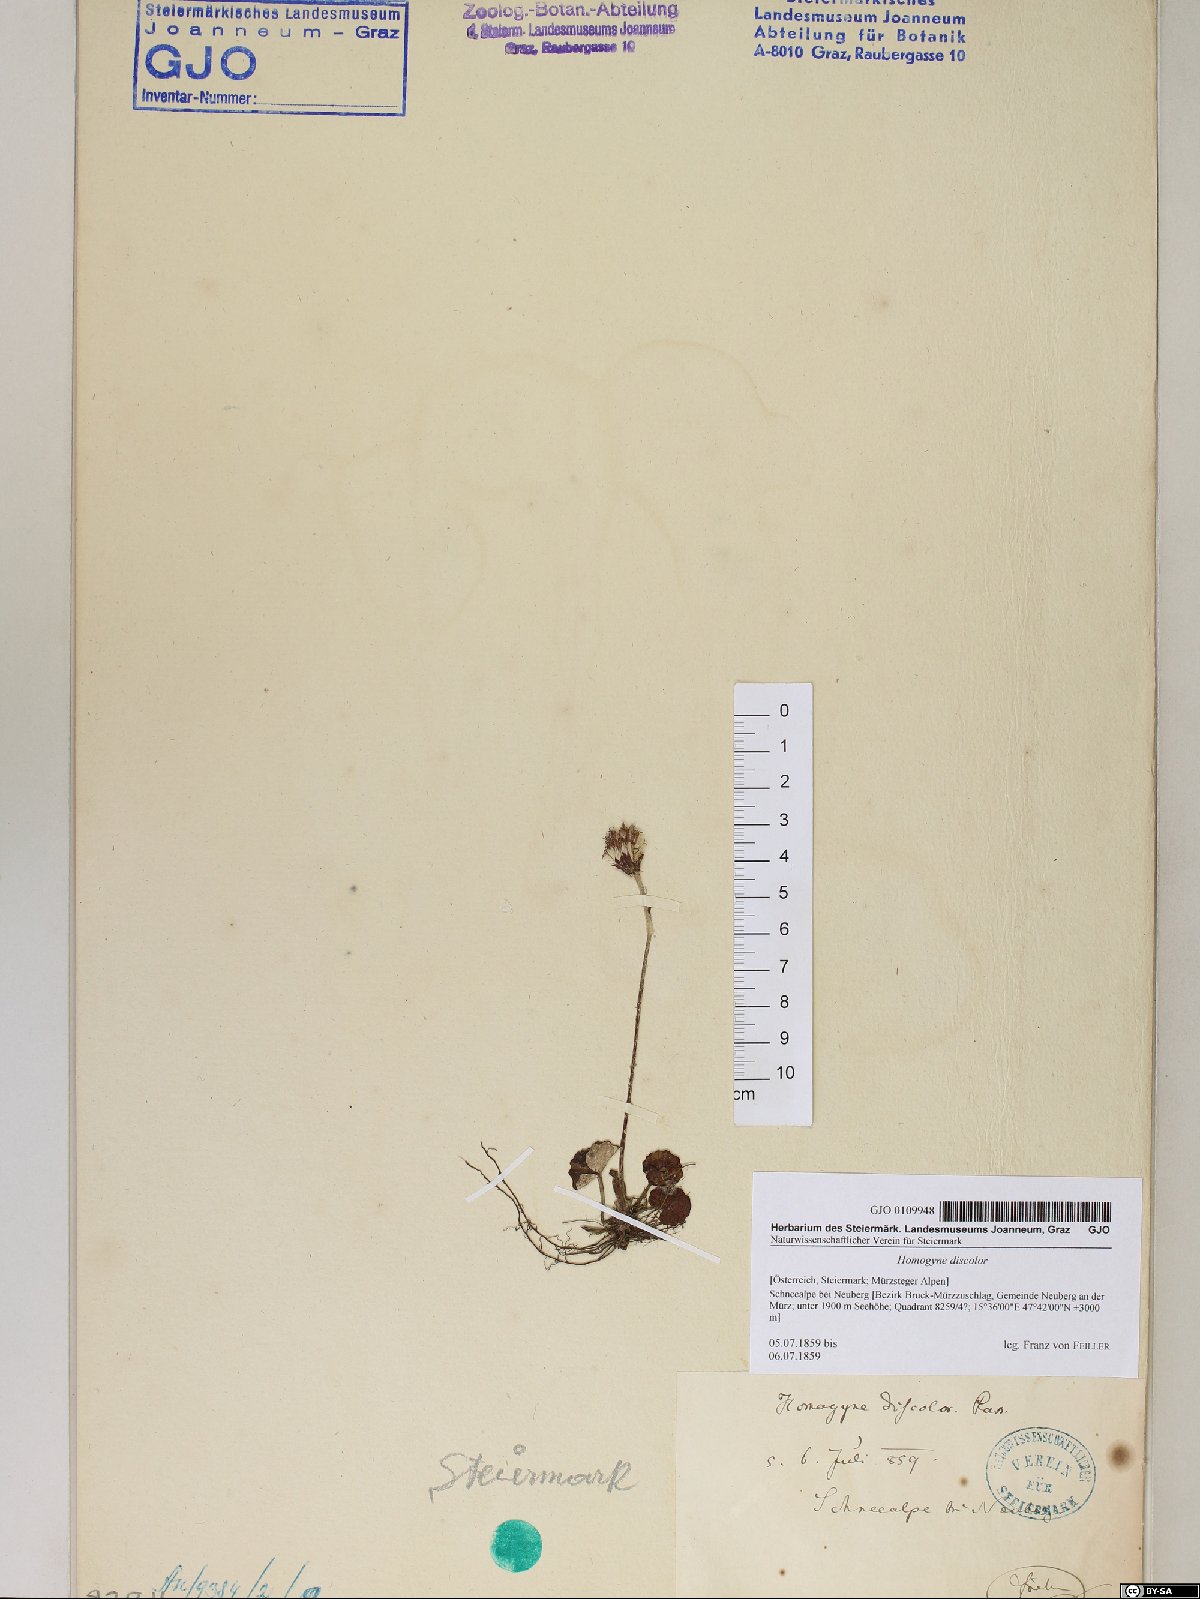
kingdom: Plantae
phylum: Tracheophyta
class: Magnoliopsida
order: Asterales
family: Asteraceae
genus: Homogyne
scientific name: Homogyne discolor
